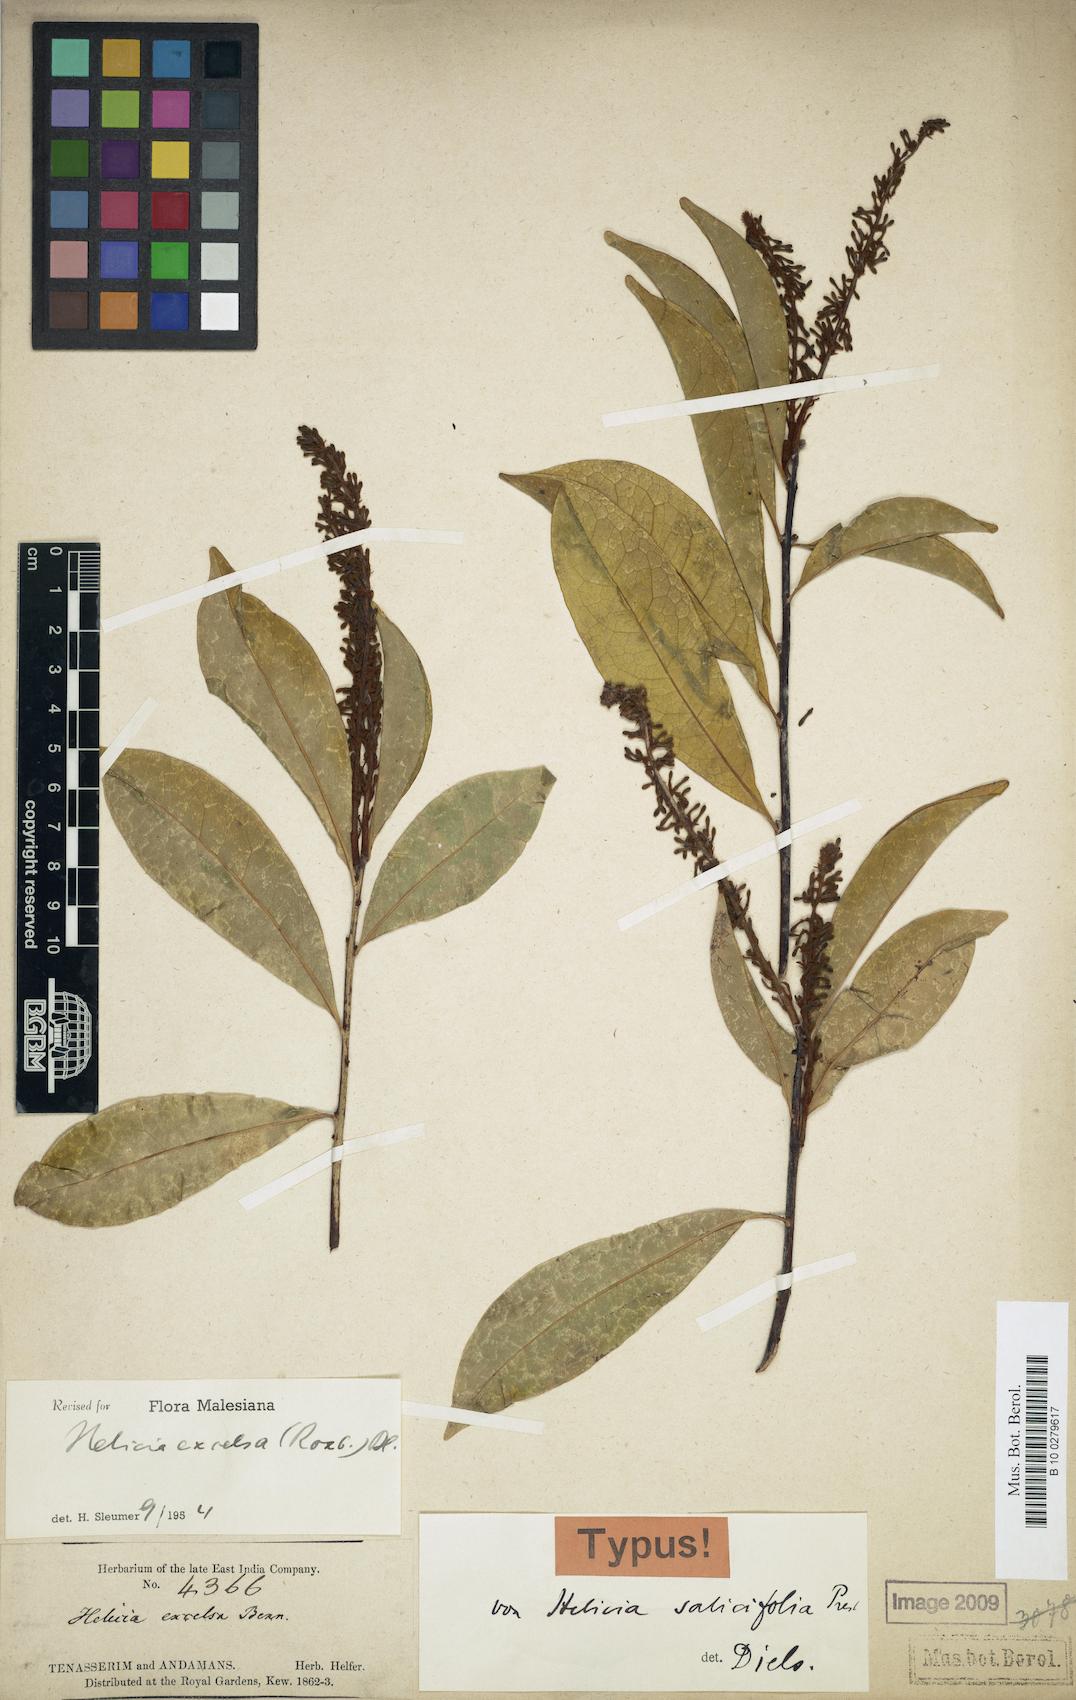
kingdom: Plantae
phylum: Tracheophyta
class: Magnoliopsida
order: Proteales
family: Proteaceae
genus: Helicia
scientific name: Helicia excelsa
